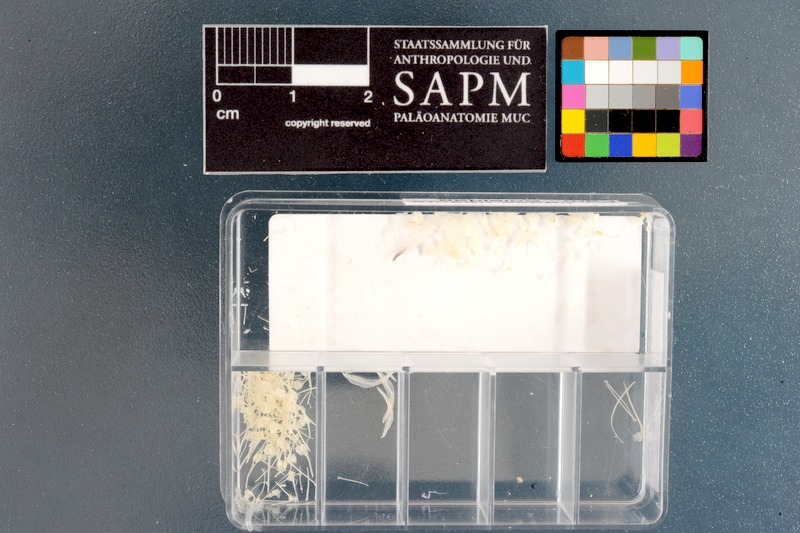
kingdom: Animalia
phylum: Chordata
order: Pleuronectiformes
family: Soleidae
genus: Pegusa
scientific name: Pegusa nasuta
